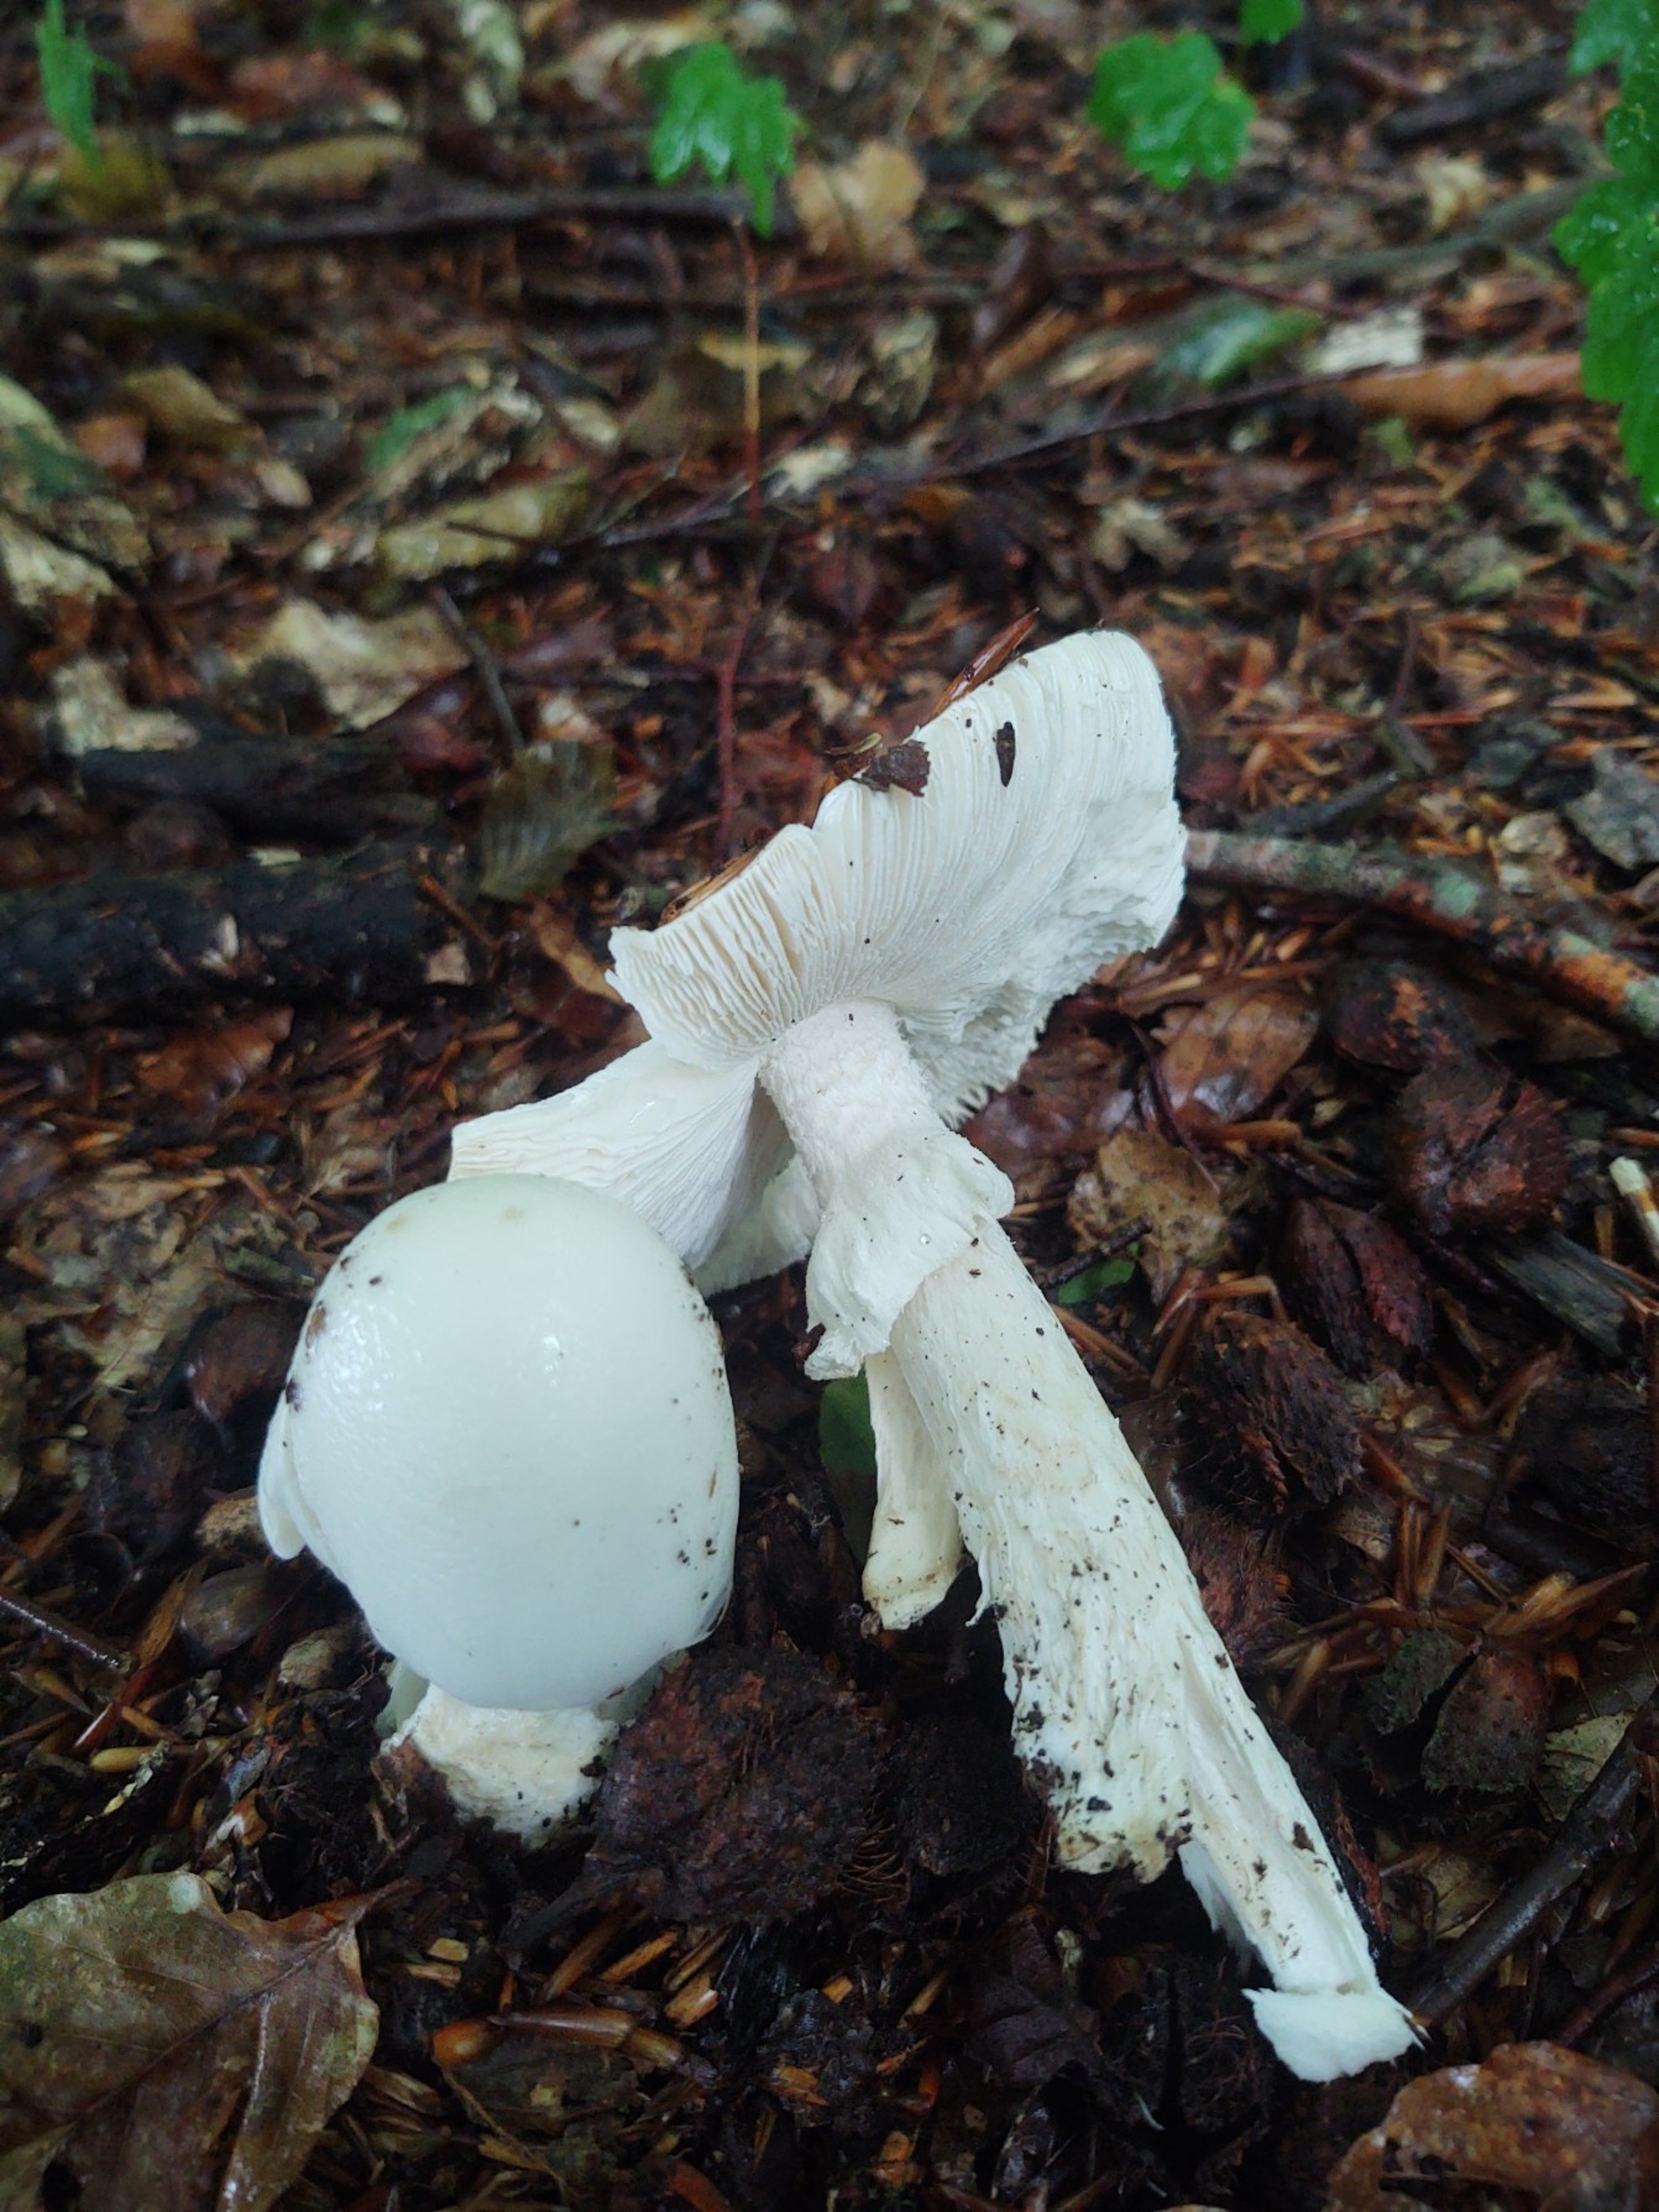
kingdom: Fungi
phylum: Basidiomycota
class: Agaricomycetes
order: Agaricales
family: Amanitaceae
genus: Amanita
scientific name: Amanita virosa
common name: Snehvid fluesvamp
